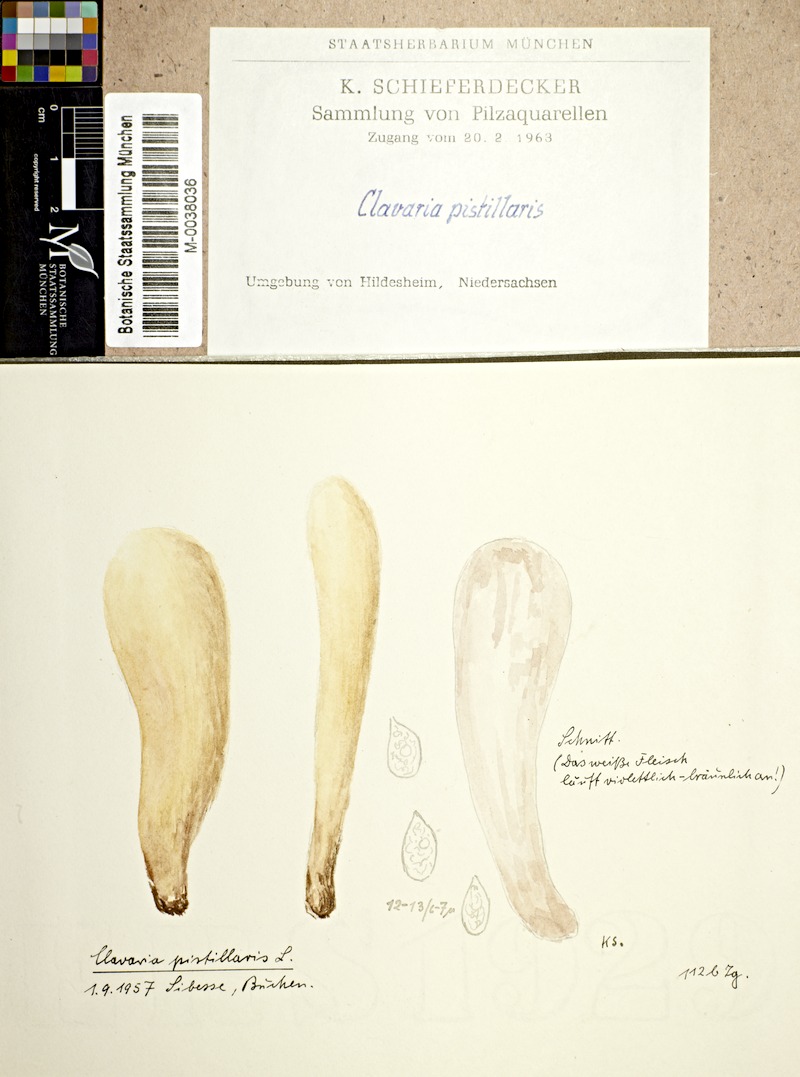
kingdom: Fungi
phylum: Basidiomycota
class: Agaricomycetes
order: Gomphales
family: Clavariadelphaceae
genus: Clavariadelphus
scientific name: Clavariadelphus pistillaris
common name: Giant club
